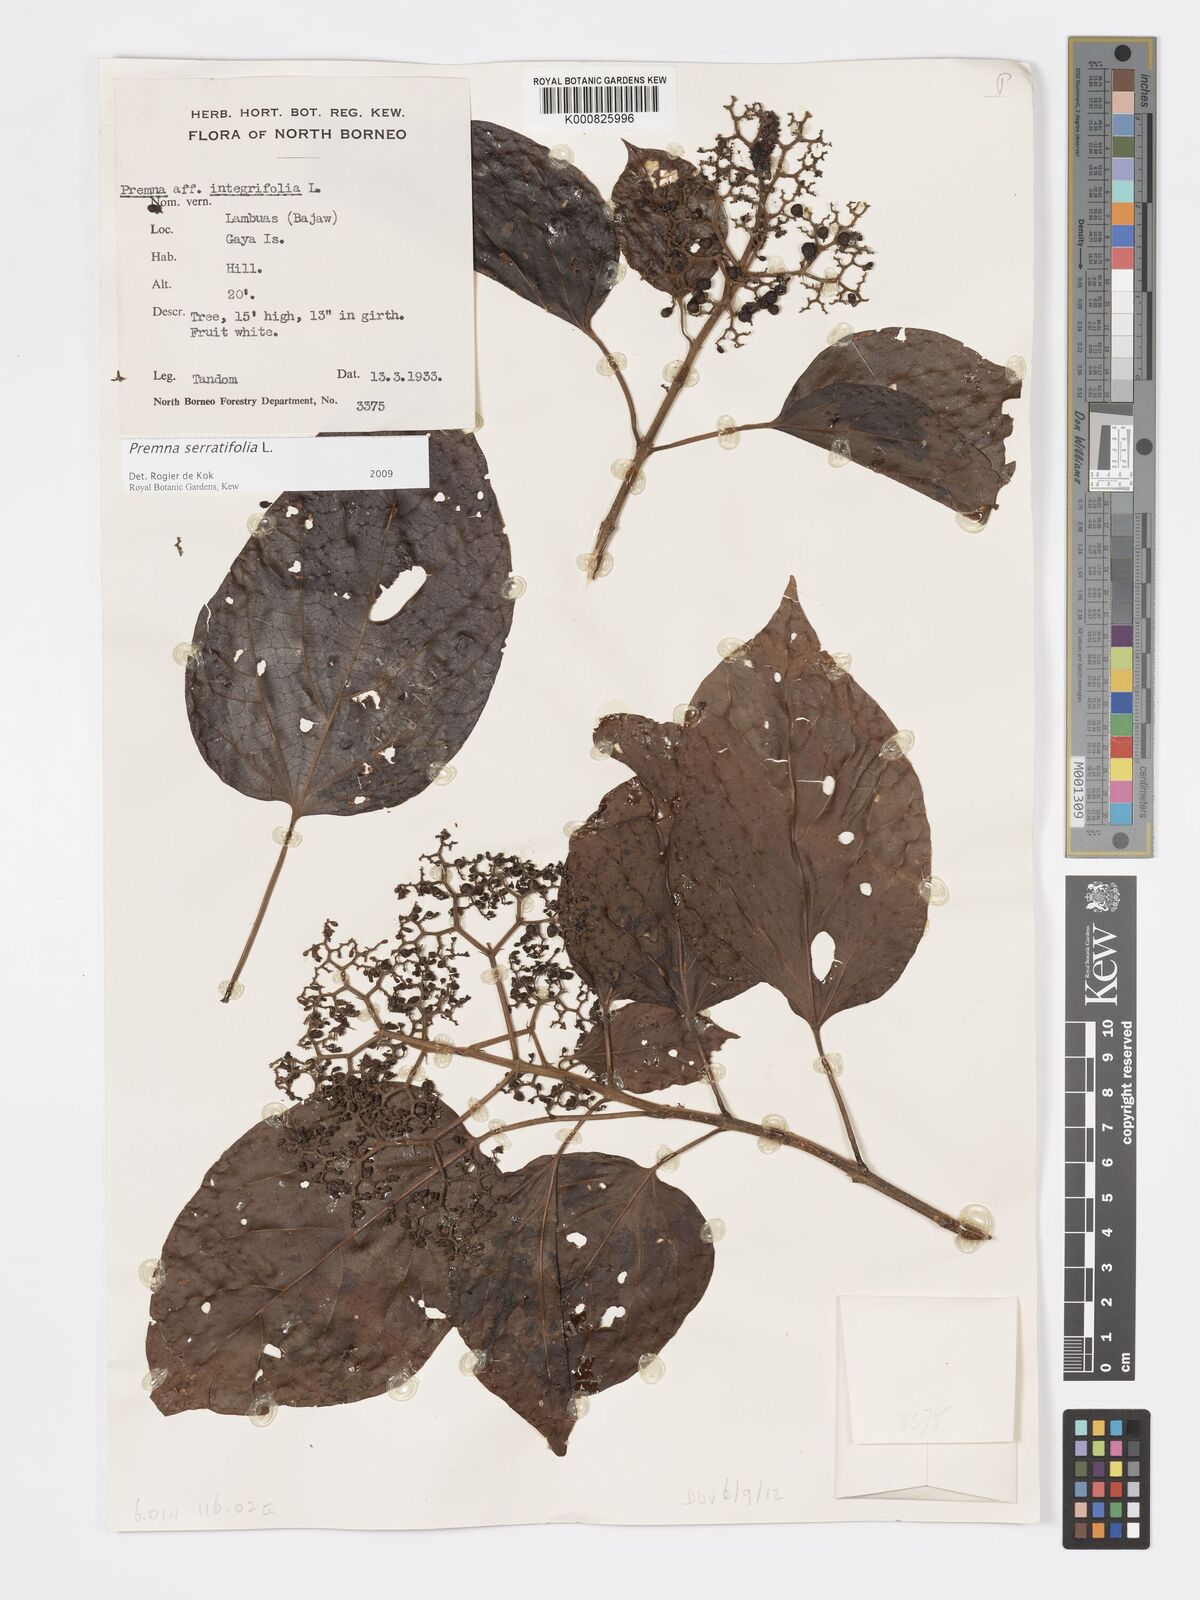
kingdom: Plantae
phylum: Tracheophyta
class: Magnoliopsida
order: Lamiales
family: Lamiaceae
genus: Premna
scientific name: Premna serratifolia
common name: Bastard guelder
